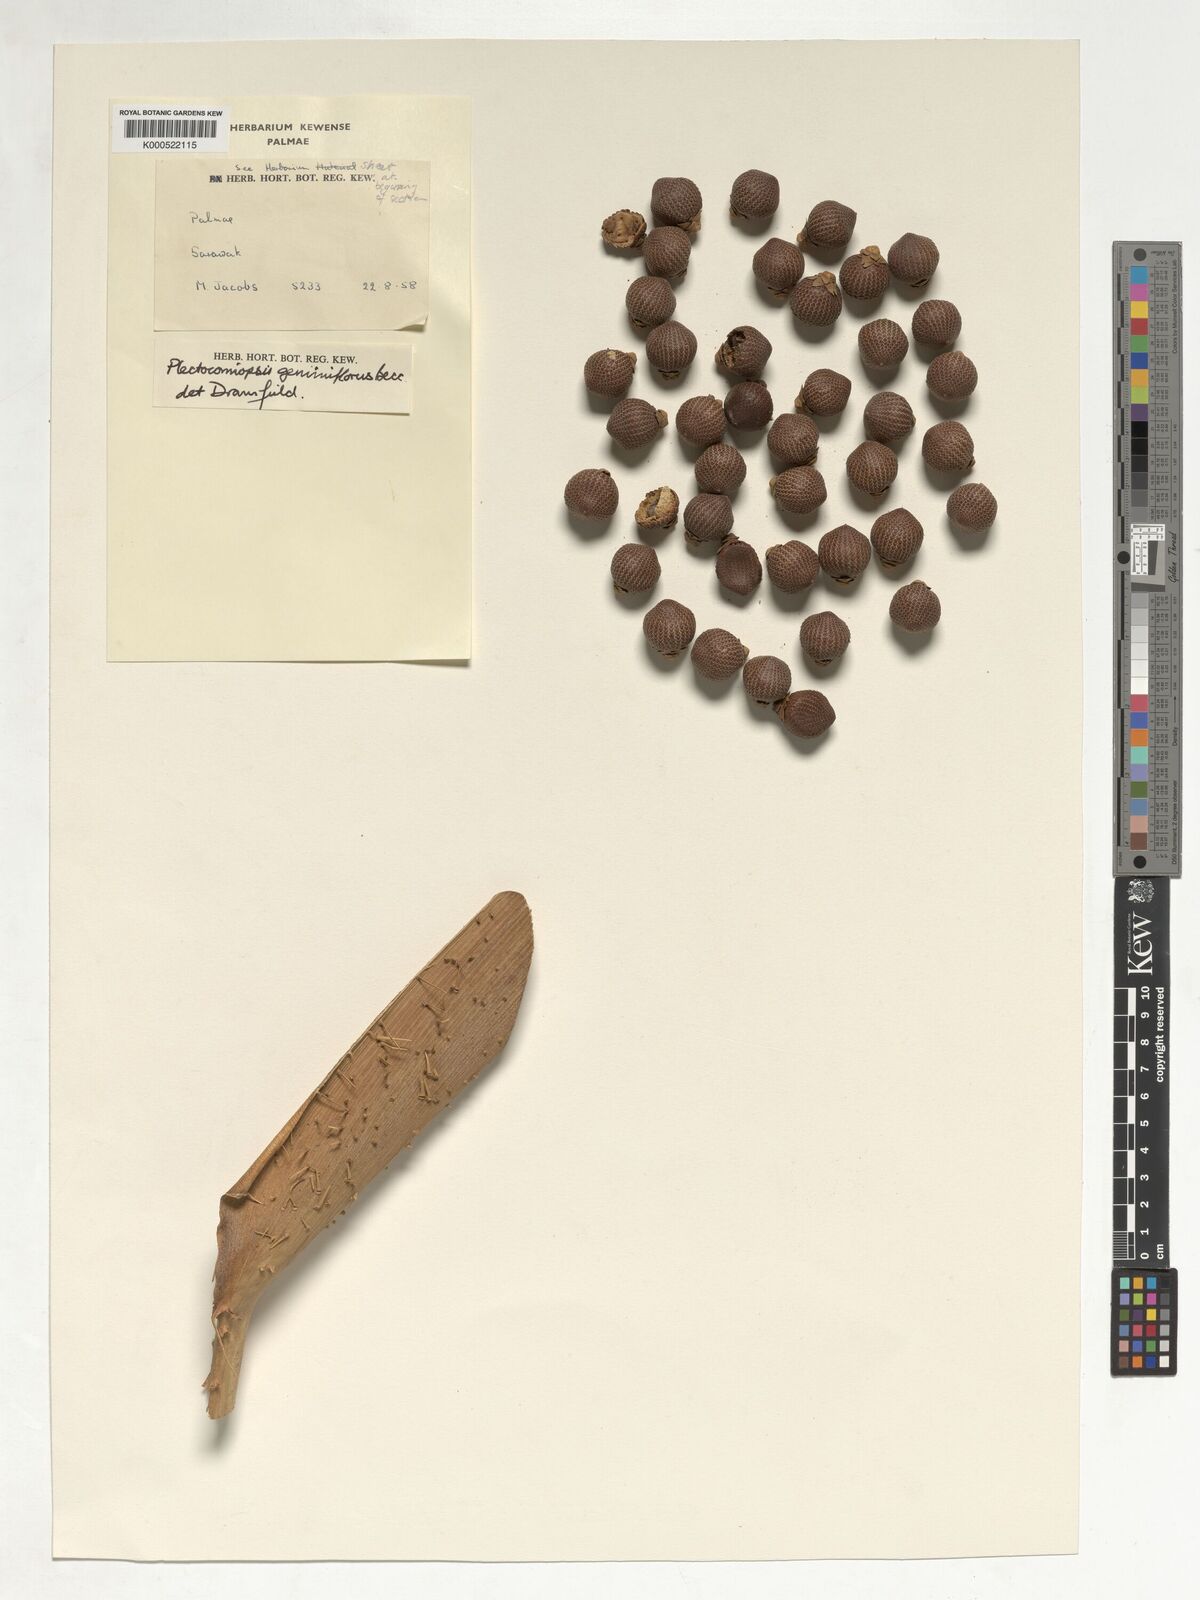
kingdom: Plantae
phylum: Tracheophyta
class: Liliopsida
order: Arecales
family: Arecaceae
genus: Plectocomiopsis
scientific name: Plectocomiopsis geminiflora
